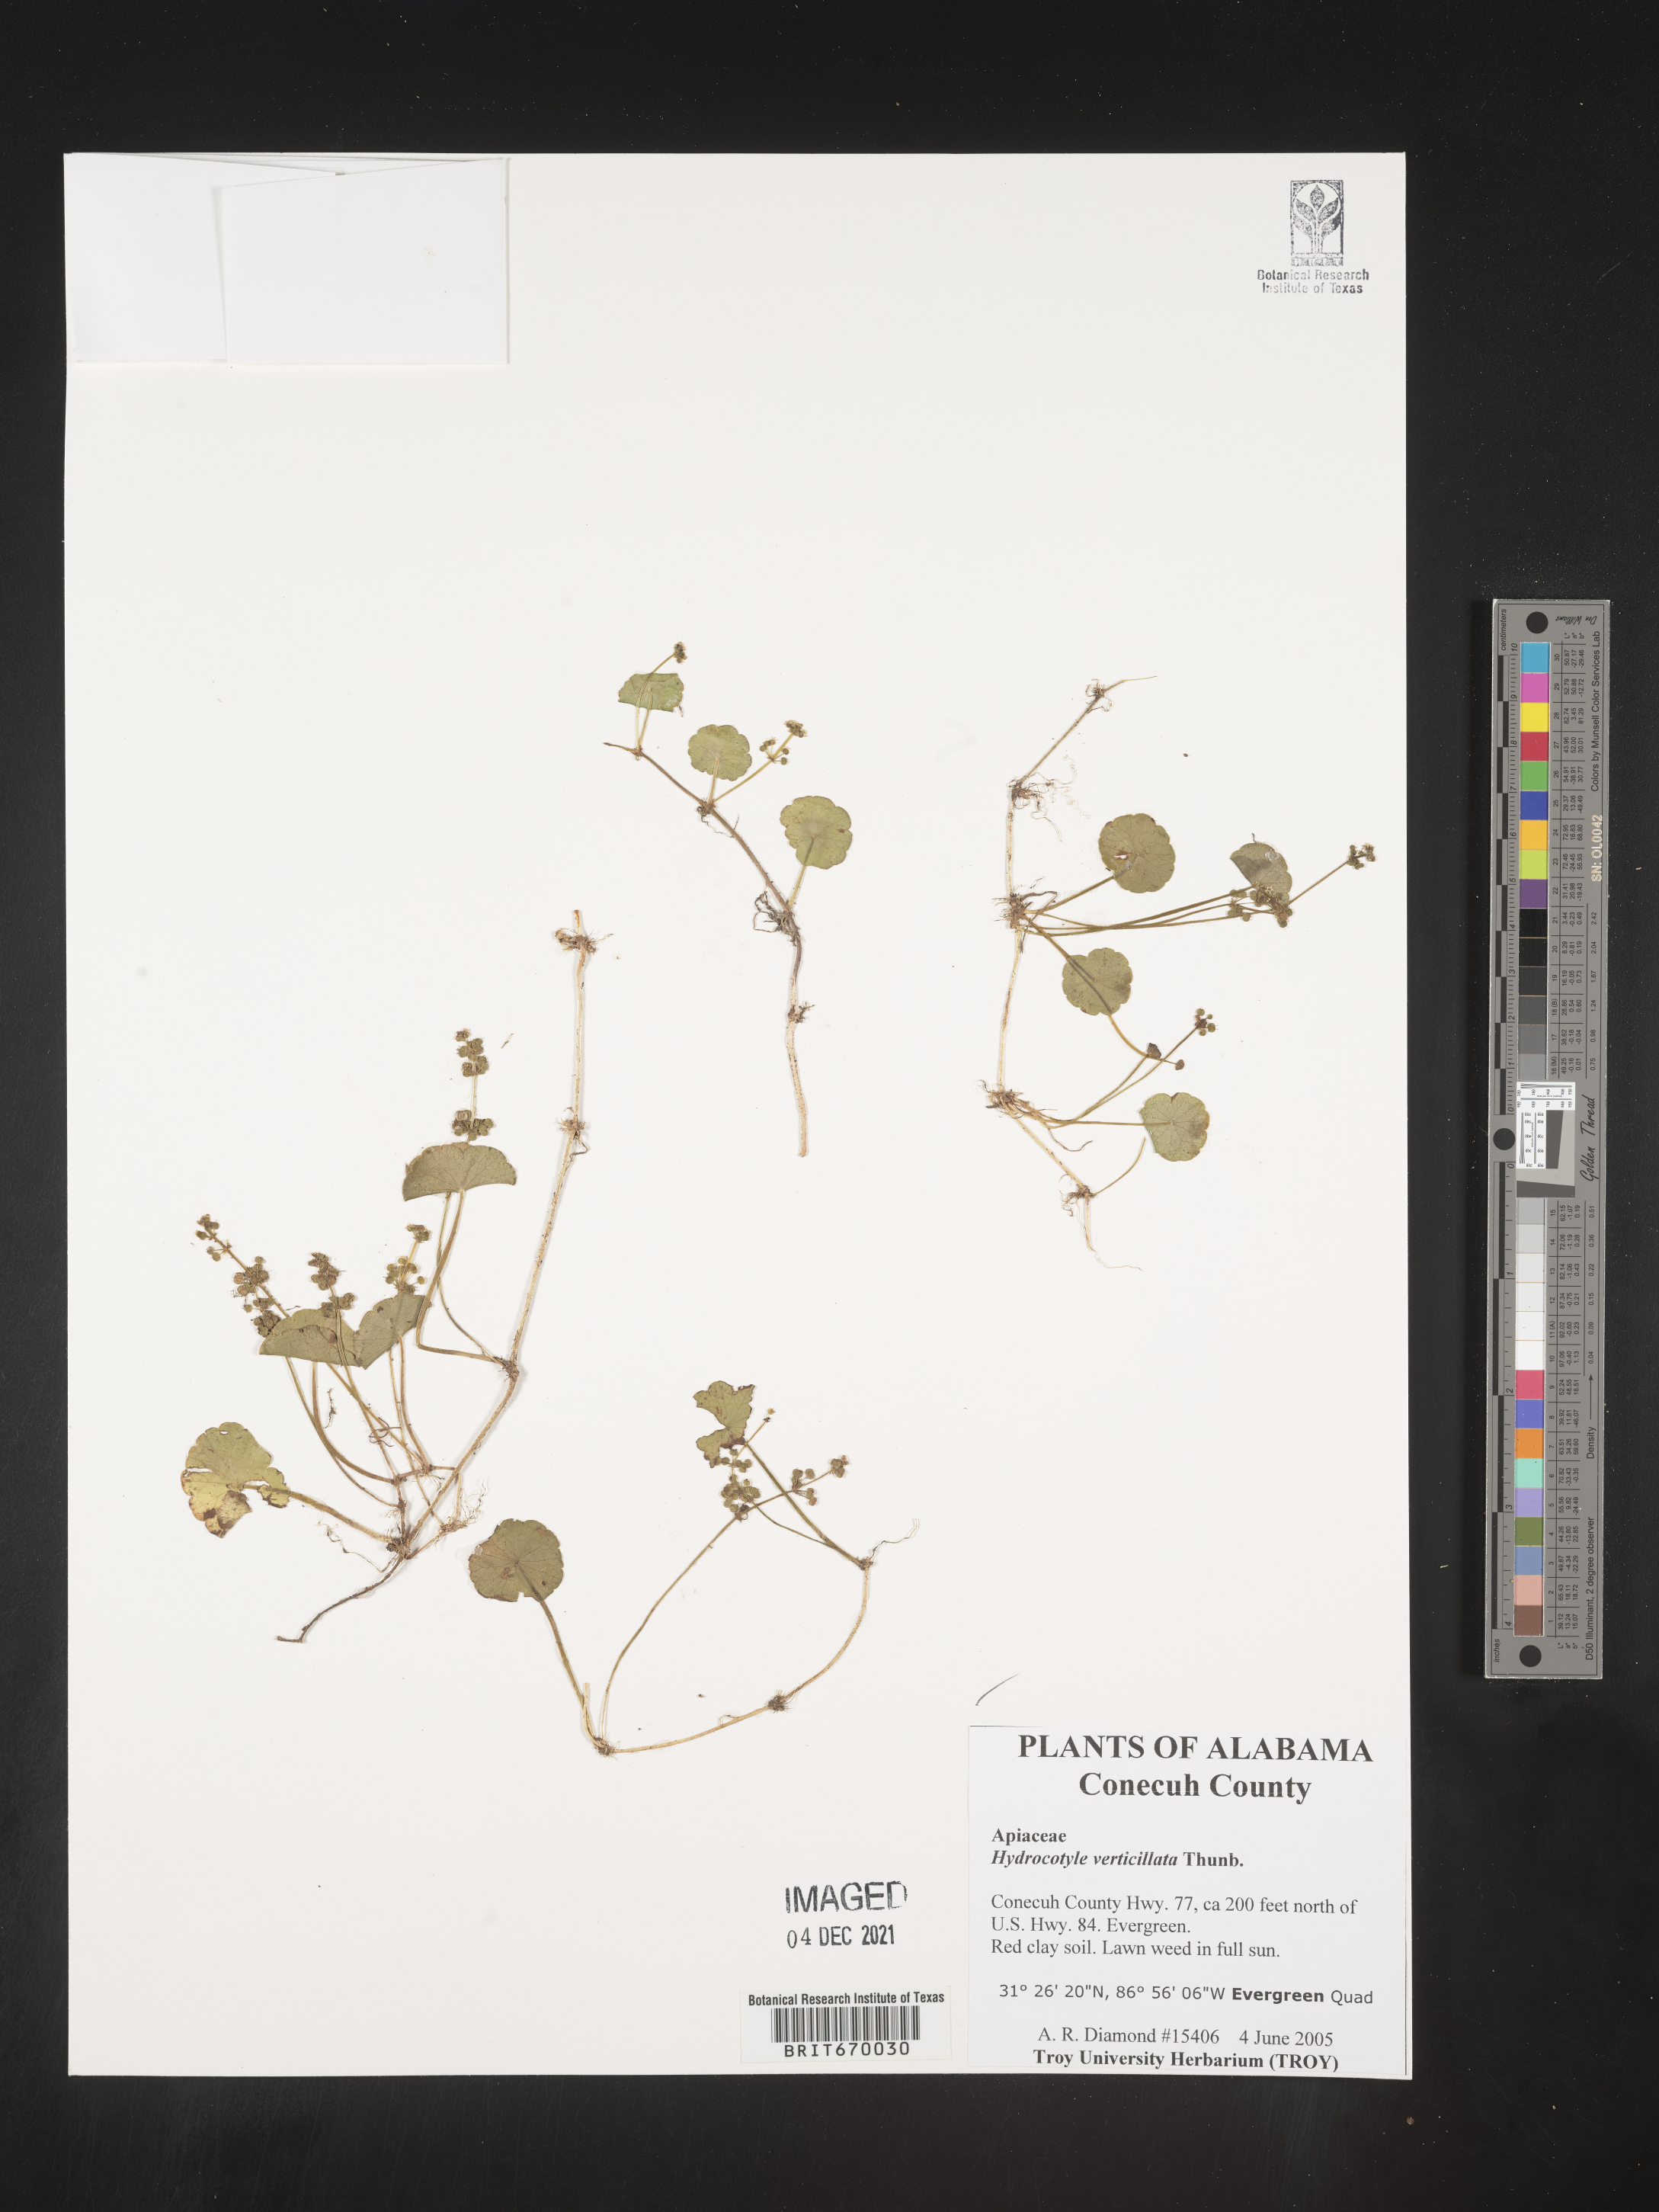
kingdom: Plantae
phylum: Tracheophyta
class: Magnoliopsida
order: Apiales
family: Araliaceae
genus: Hydrocotyle
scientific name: Hydrocotyle verticillata
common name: Whorled marshpennywort
